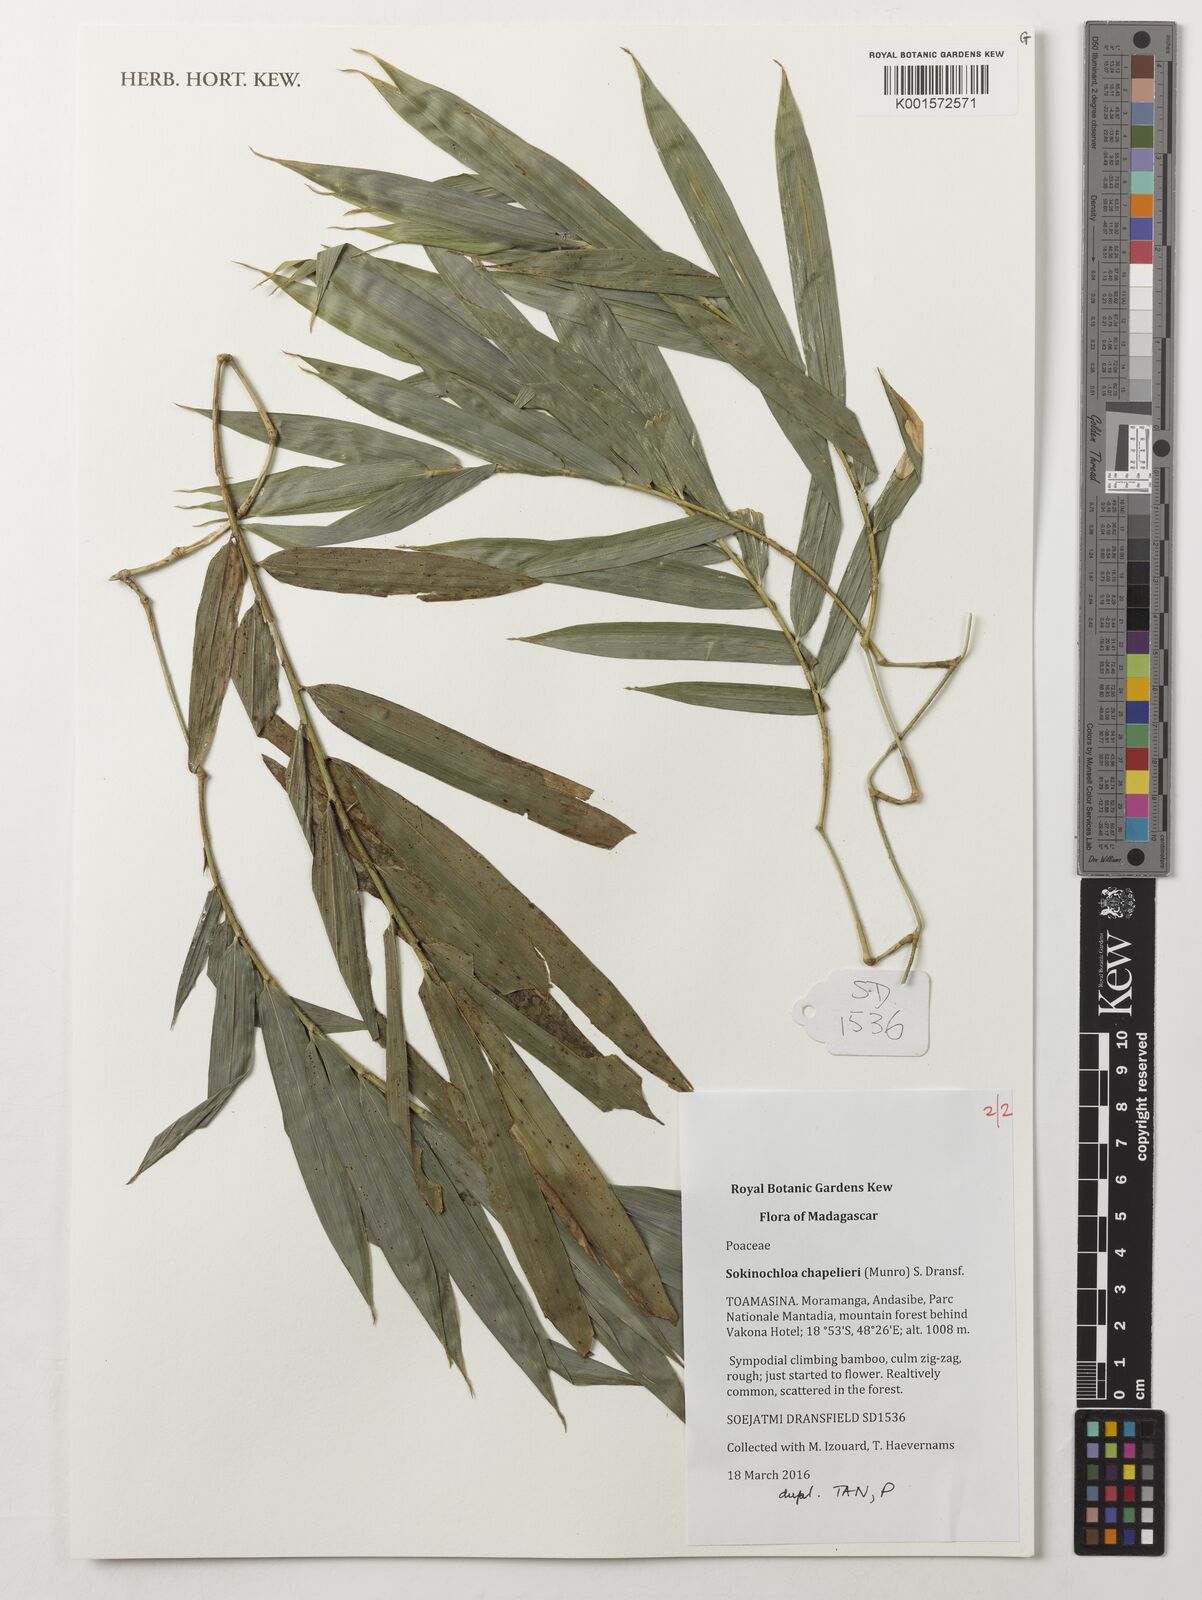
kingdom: Plantae
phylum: Tracheophyta
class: Liliopsida
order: Poales
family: Poaceae
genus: Sokinochloa
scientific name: Sokinochloa chapelieri
